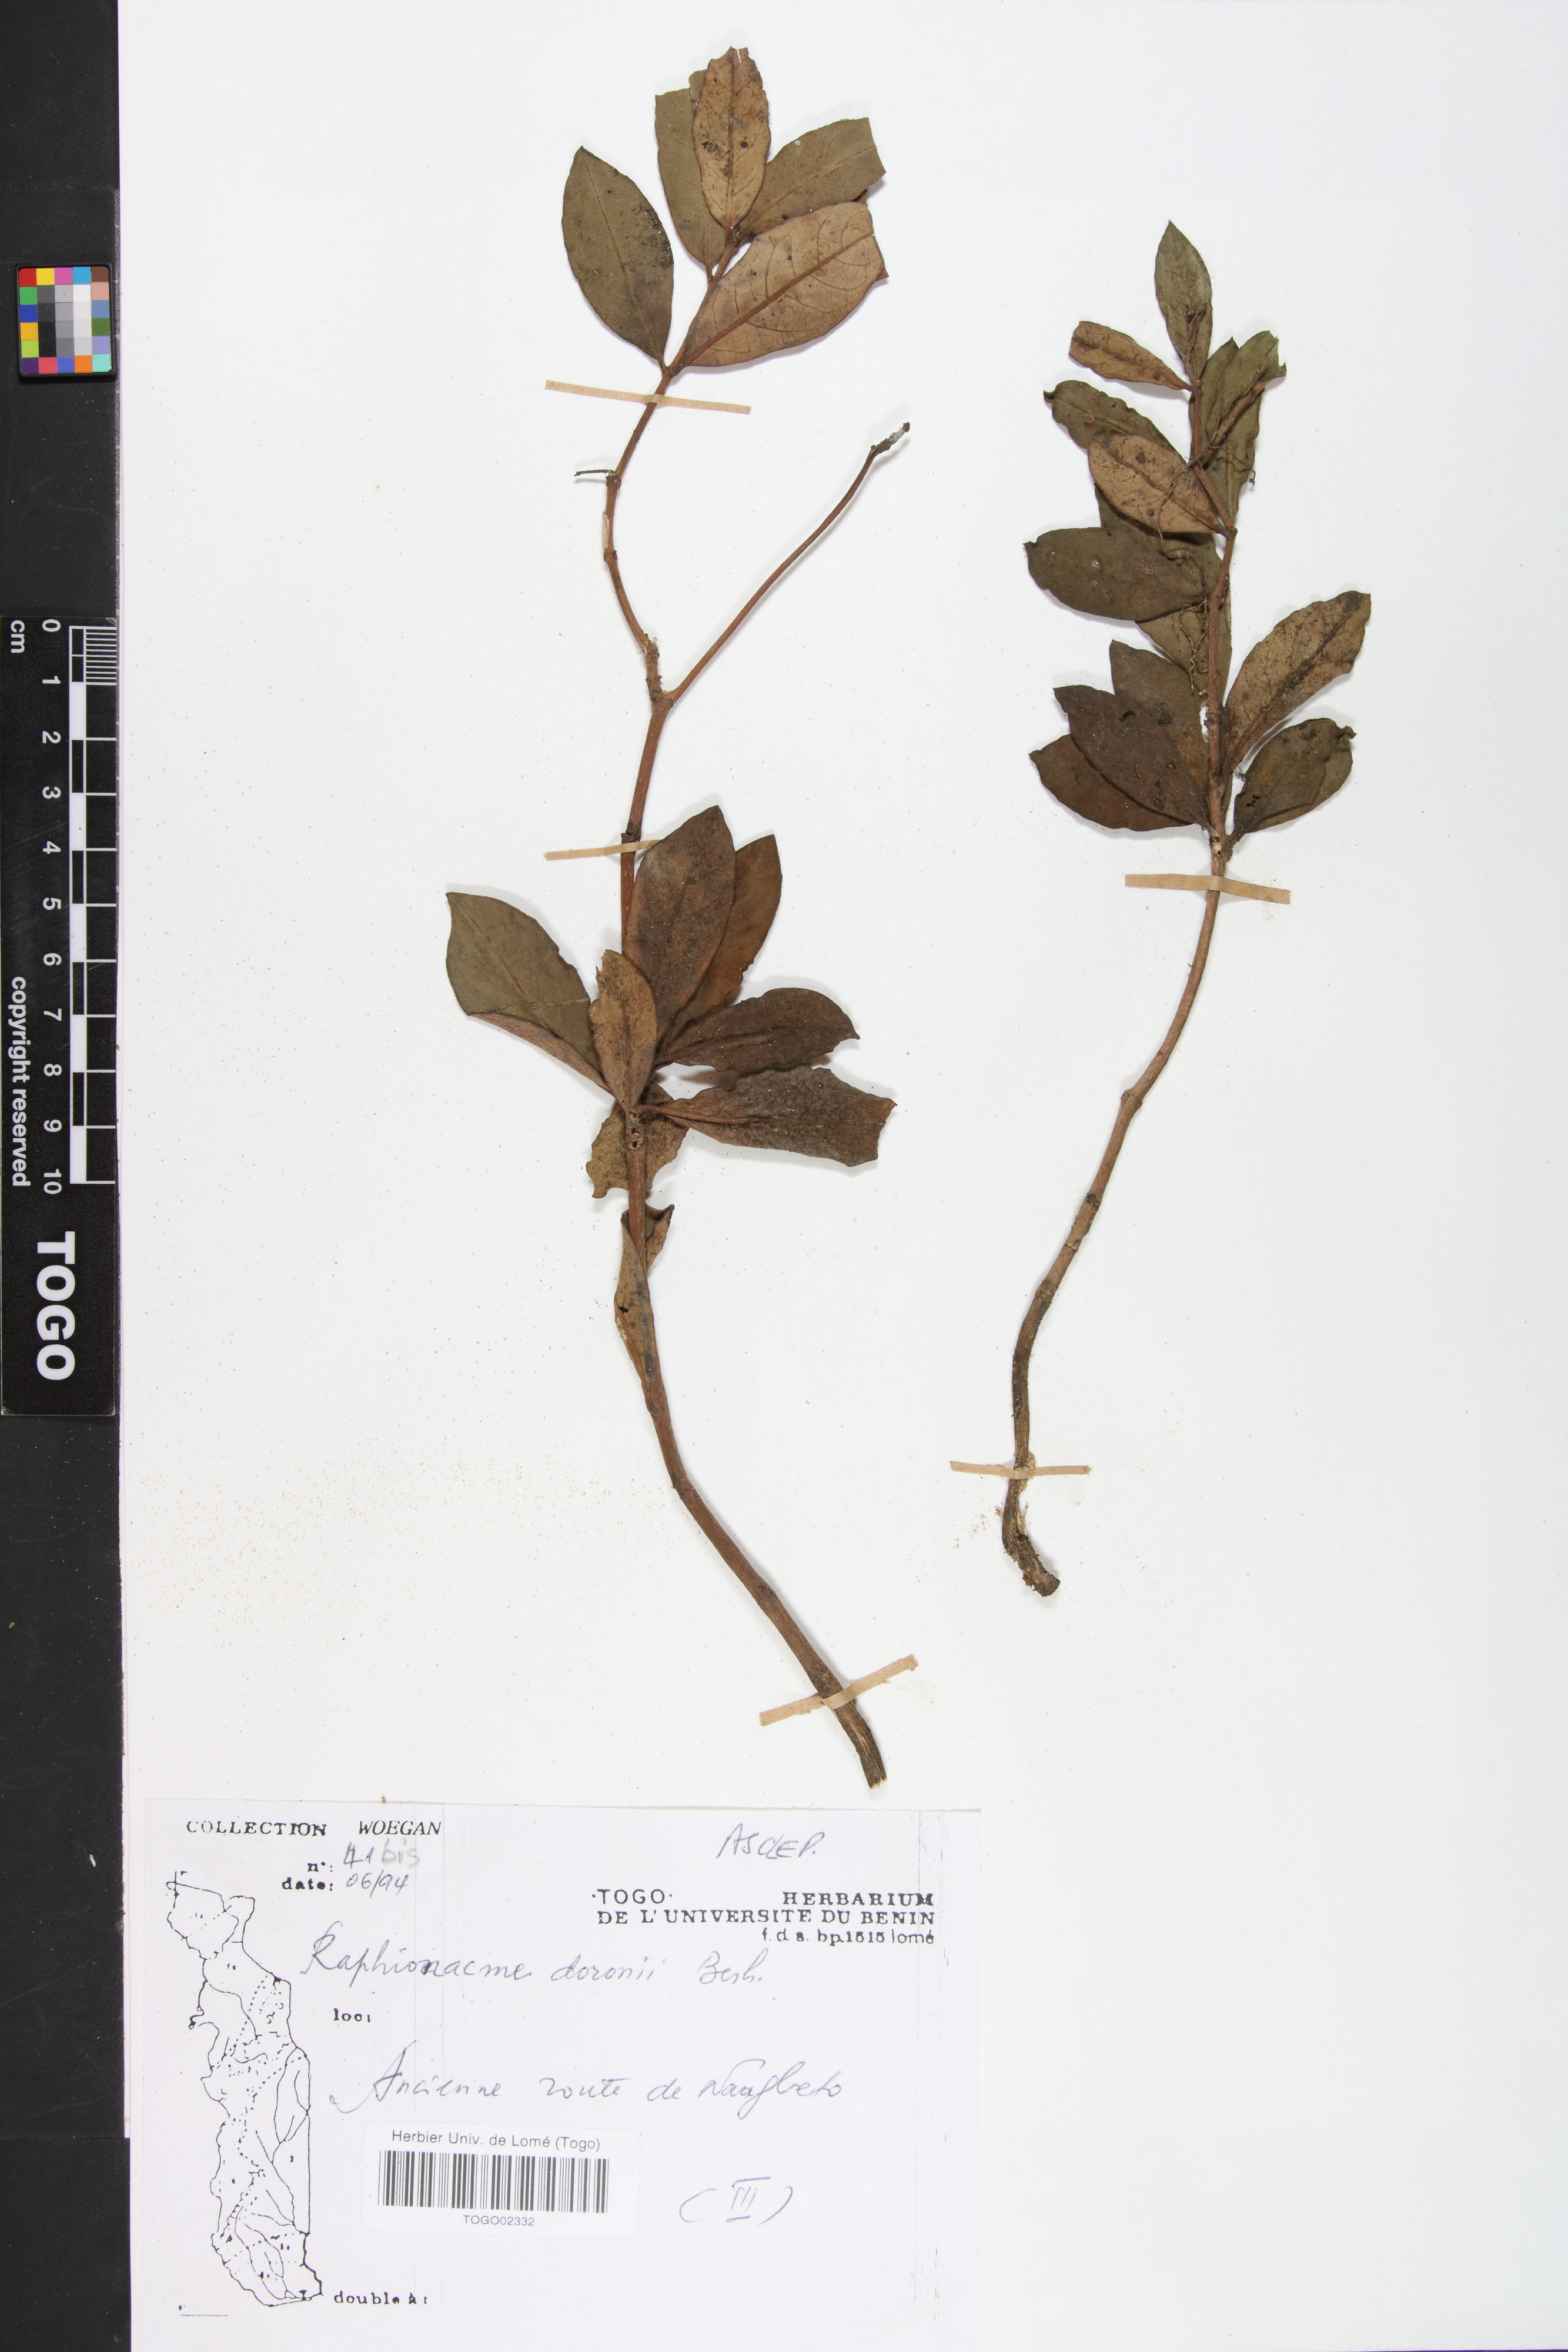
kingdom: Plantae
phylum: Tracheophyta
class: Magnoliopsida
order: Gentianales
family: Apocynaceae
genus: Raphionacme
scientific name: Raphionacme brownii
